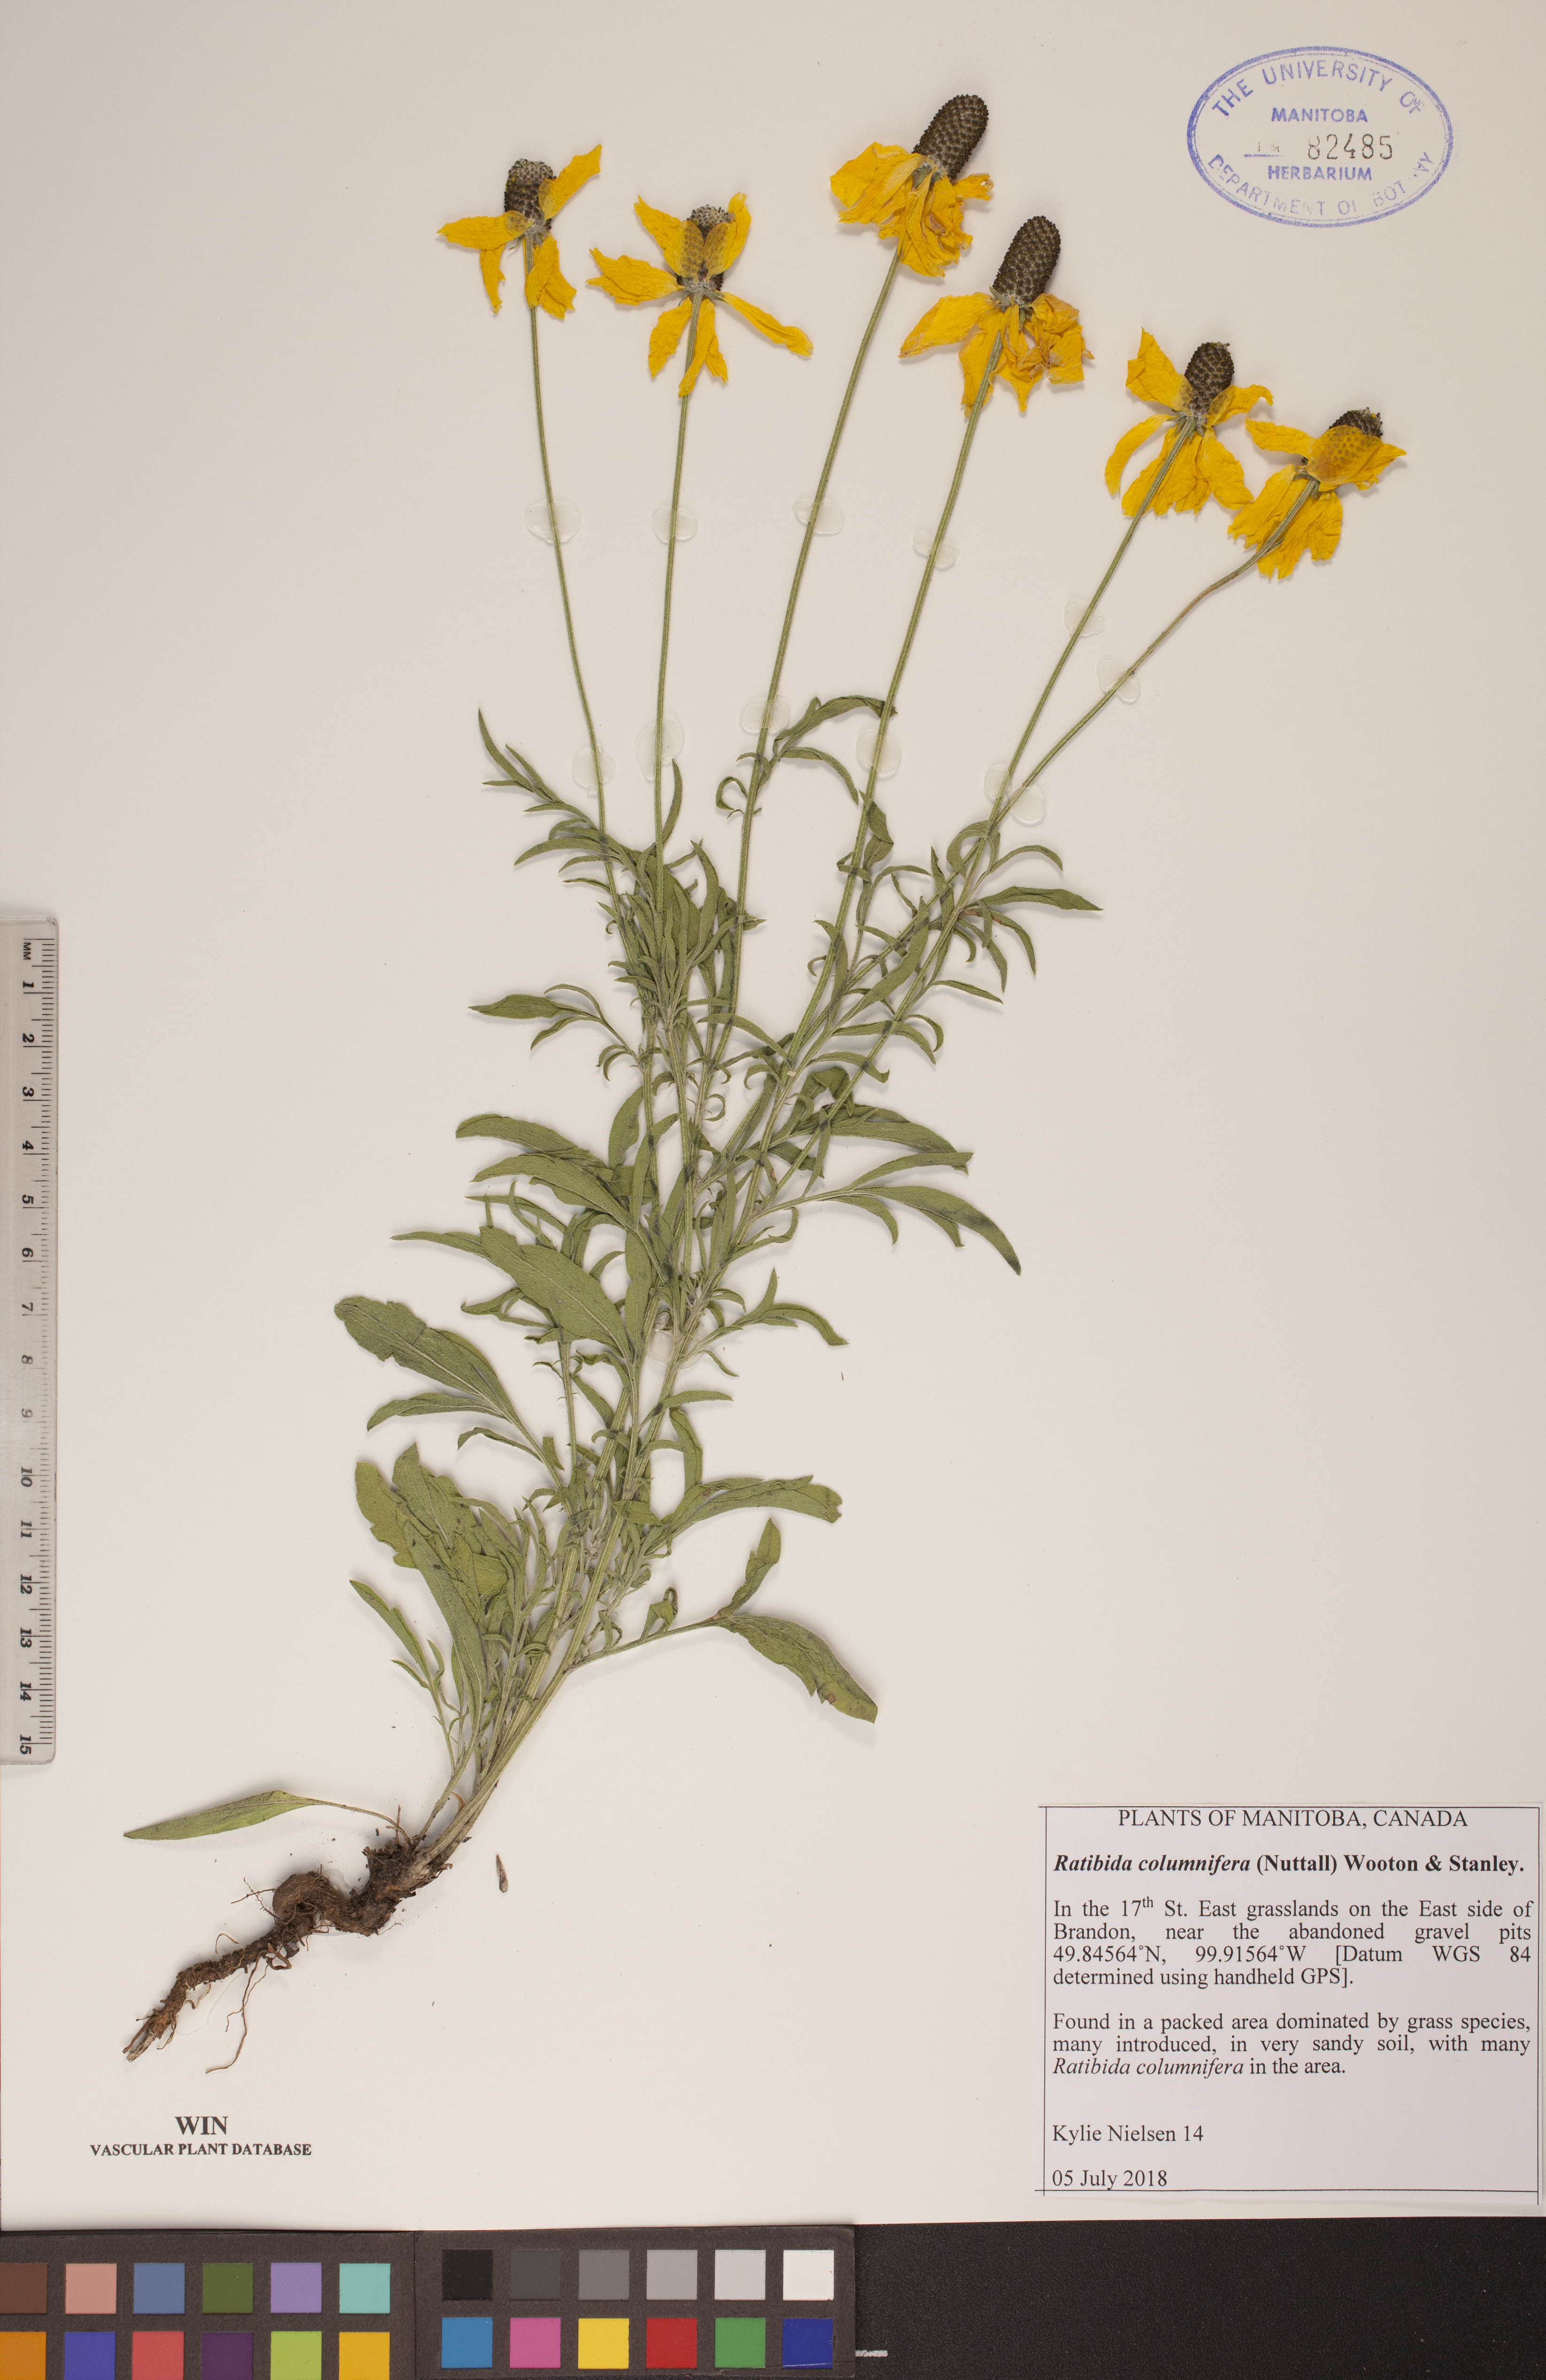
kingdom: Plantae
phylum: Tracheophyta
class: Magnoliopsida
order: Asterales
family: Asteraceae
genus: Ratibida
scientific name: Ratibida columnifera
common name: Prairie coneflower
